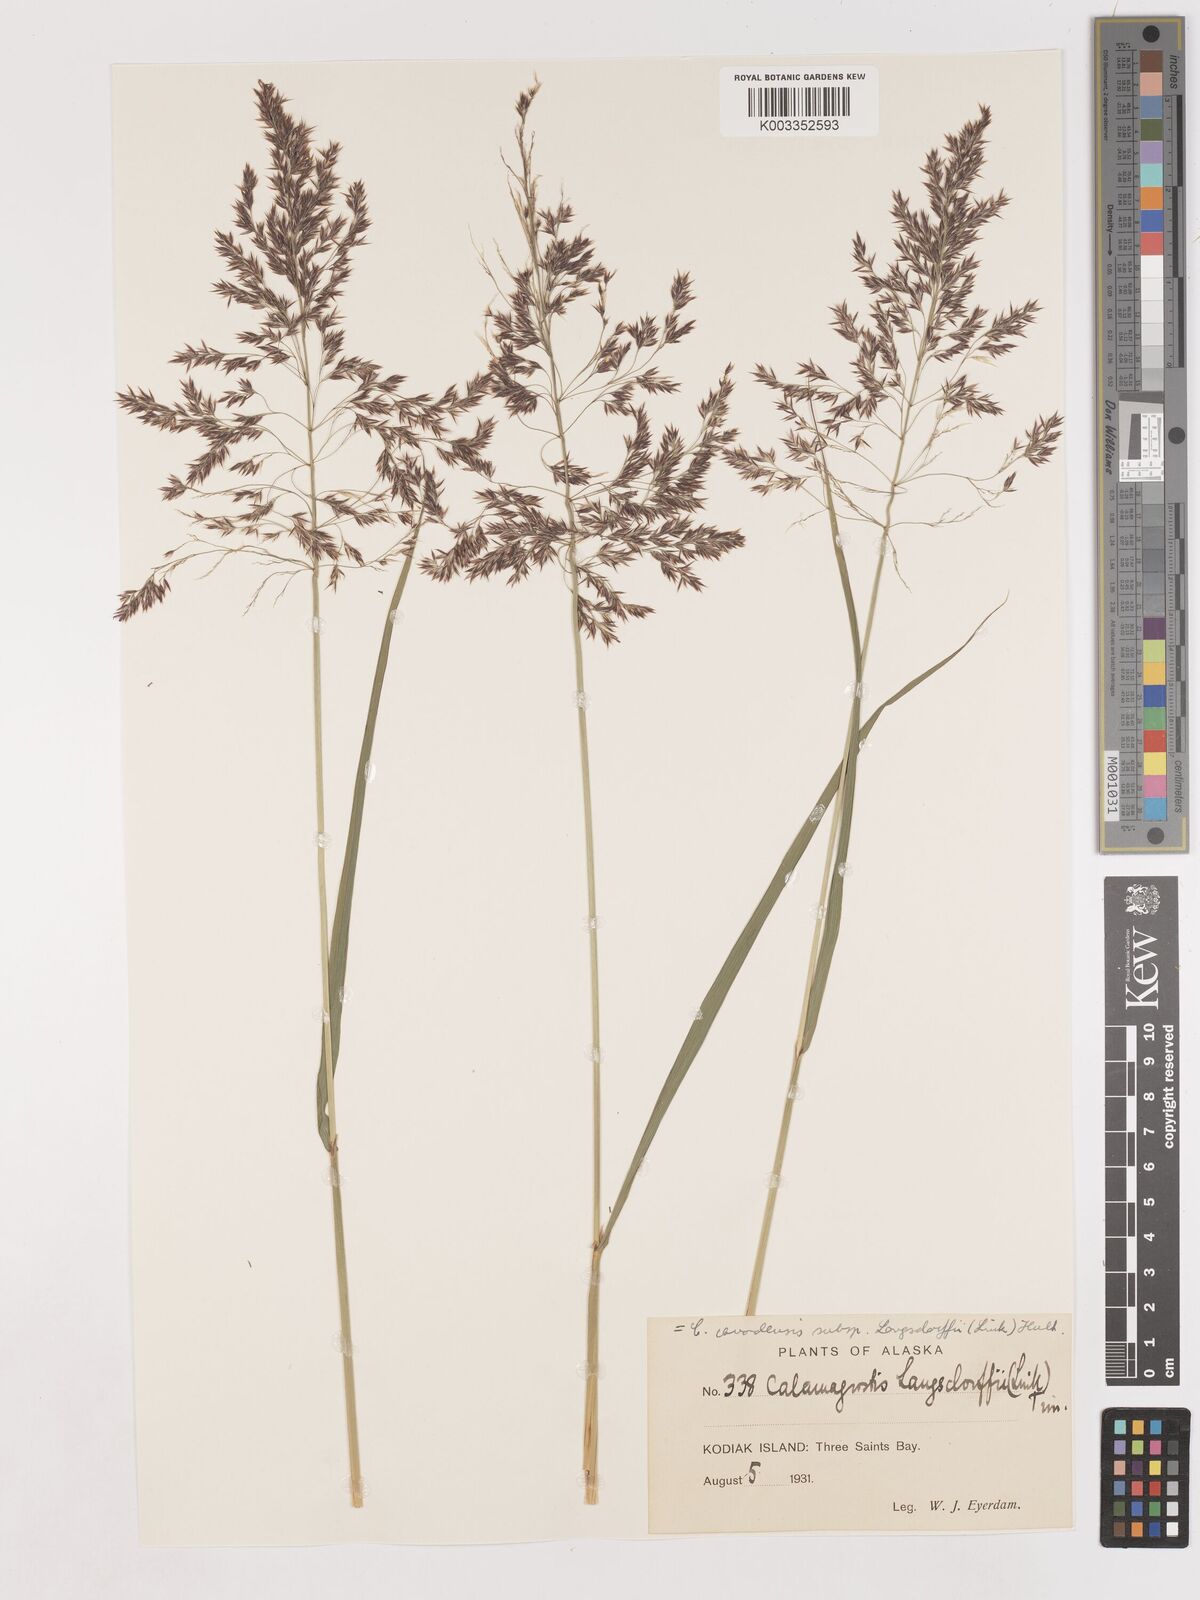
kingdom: Plantae
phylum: Tracheophyta
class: Liliopsida
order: Poales
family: Poaceae
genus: Calamagrostis
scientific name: Calamagrostis canadensis
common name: Canada bluejoint
